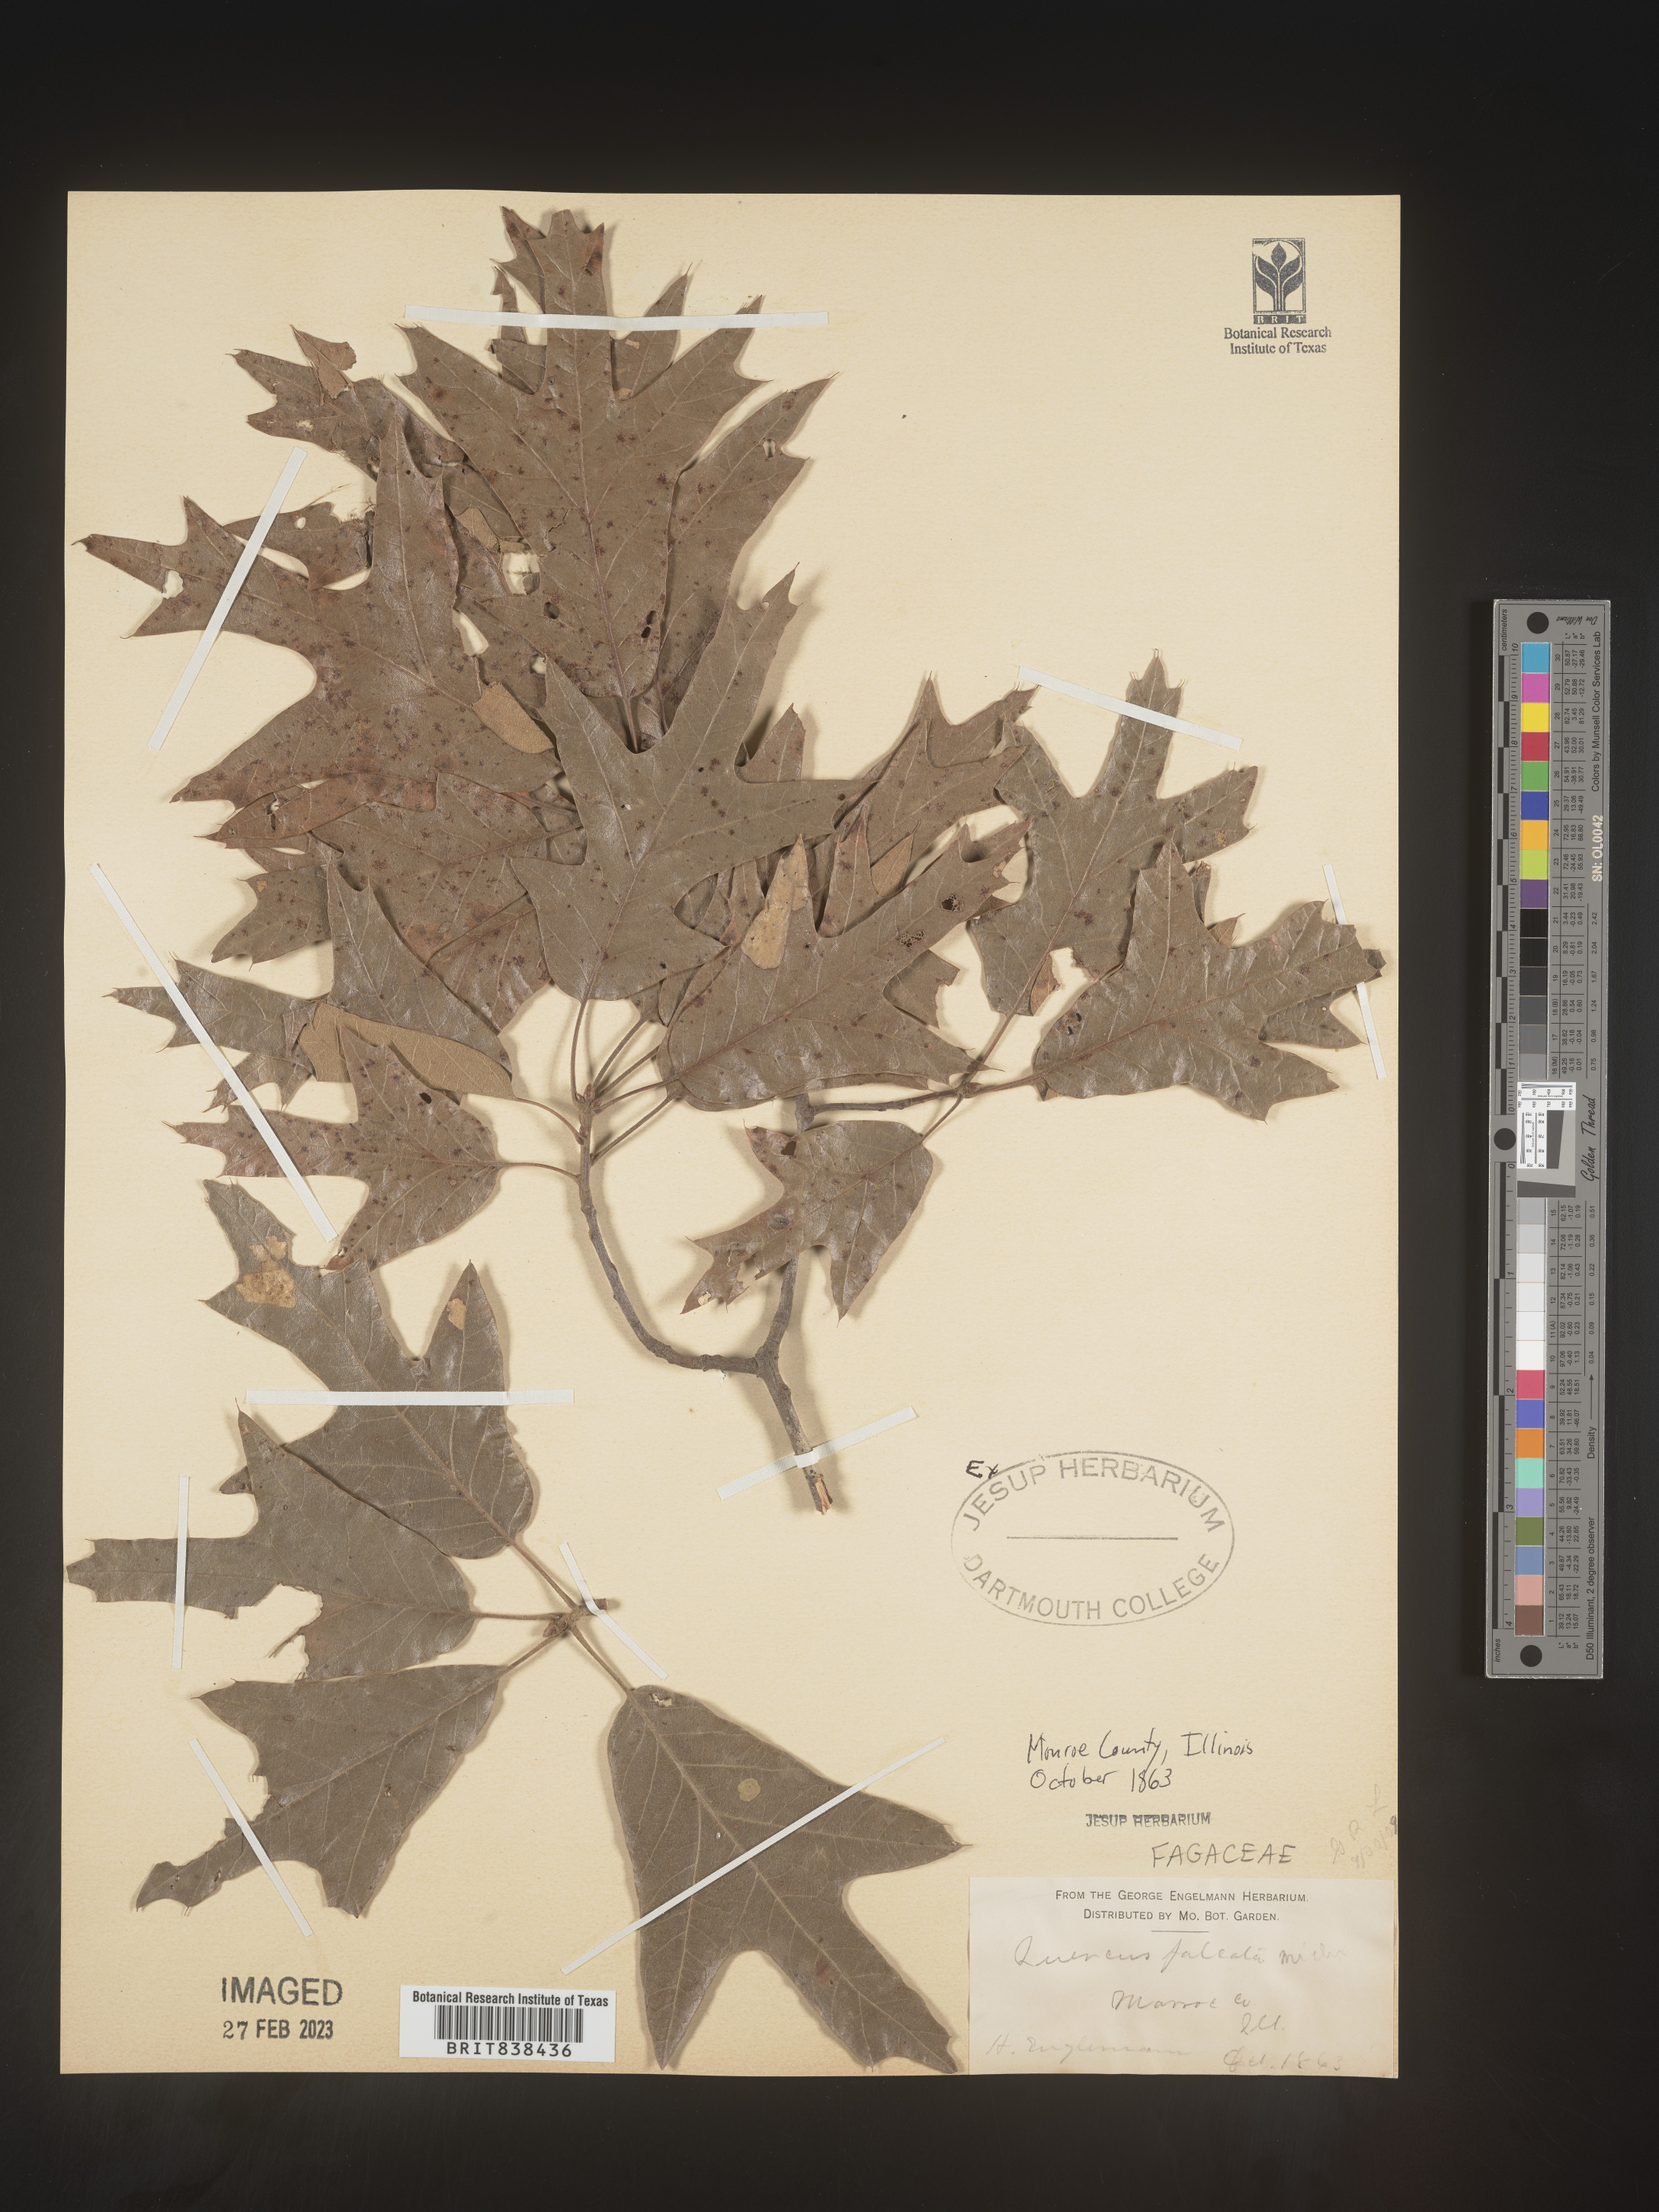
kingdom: Plantae
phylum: Tracheophyta
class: Magnoliopsida
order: Fagales
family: Fagaceae
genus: Quercus
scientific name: Quercus falcata
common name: Southern red oak
